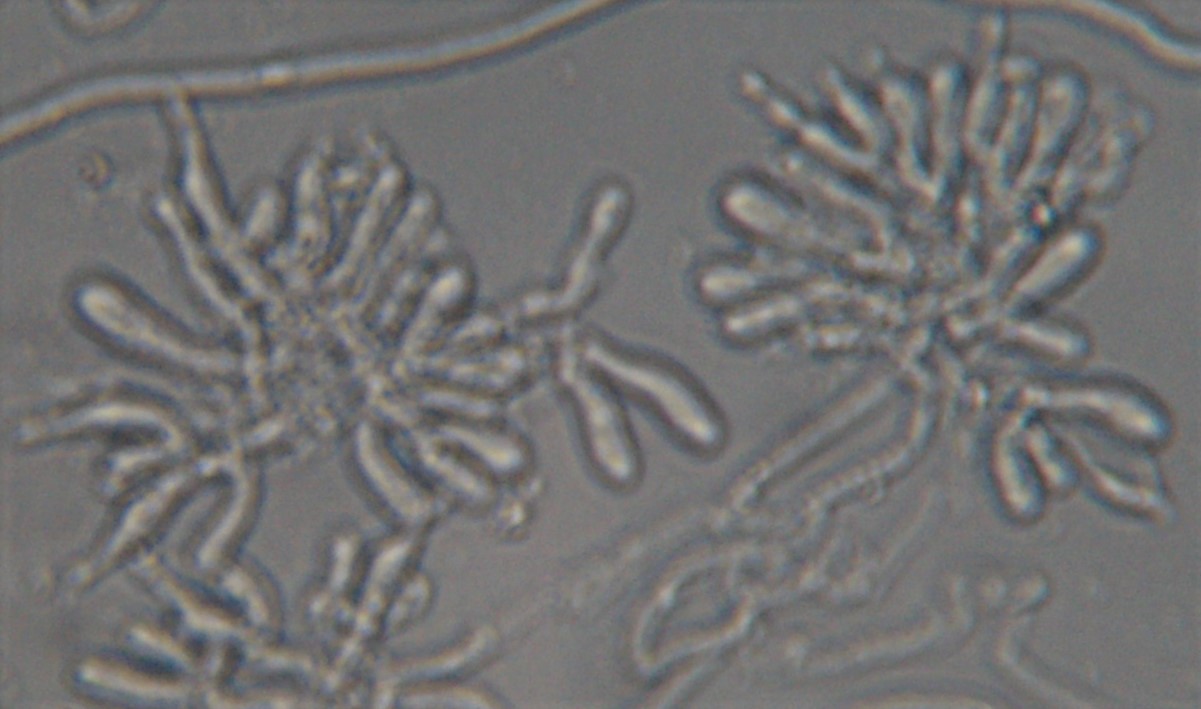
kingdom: Fungi
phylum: Basidiomycota
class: Agaricomycetes
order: Agaricales
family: Pleurotaceae
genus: Hohenbuehelia
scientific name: Hohenbuehelia atrocoerulea
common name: blålig filthat
